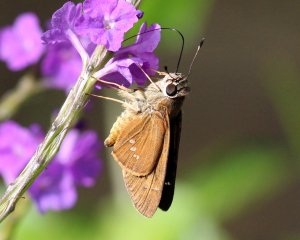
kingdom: Animalia
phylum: Arthropoda
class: Insecta
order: Lepidoptera
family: Hesperiidae
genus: Calpodes
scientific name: Calpodes ethlius
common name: Brazilian Skipper
